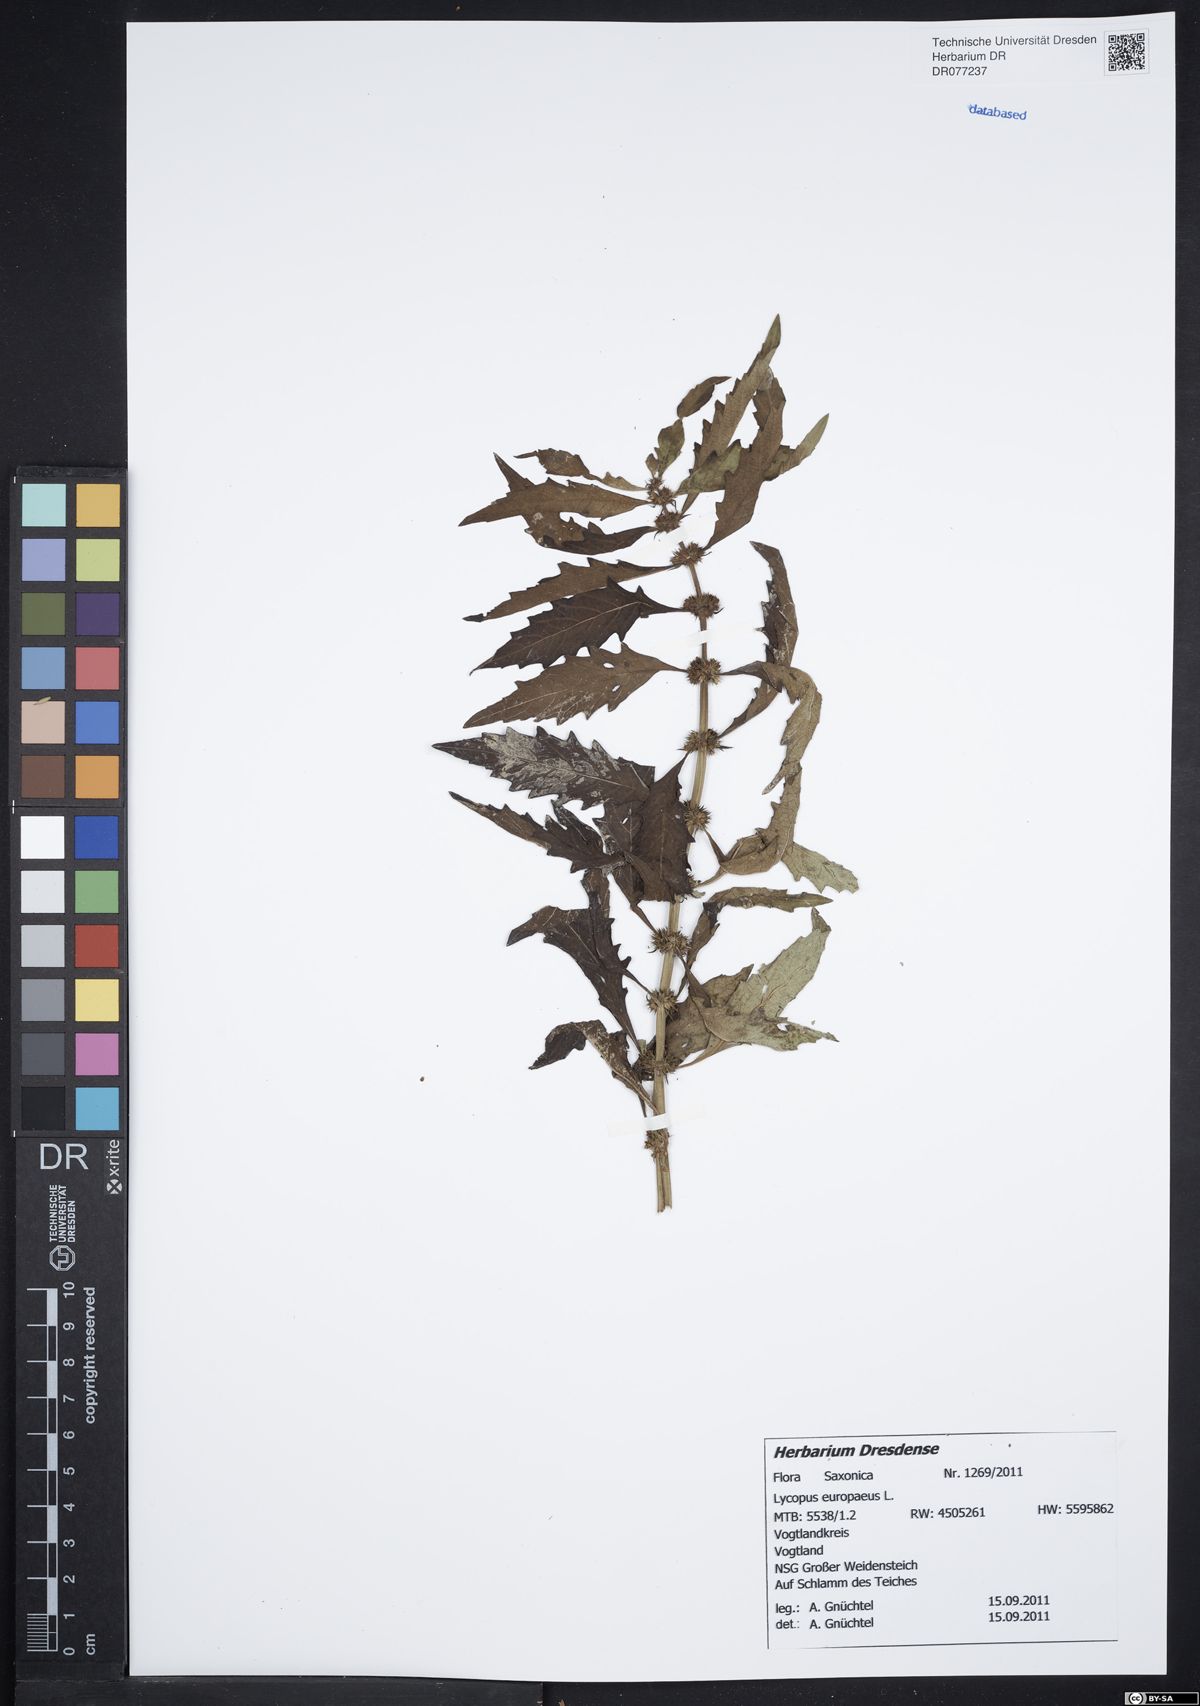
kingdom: Plantae
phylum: Tracheophyta
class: Magnoliopsida
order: Lamiales
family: Lamiaceae
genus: Lycopus
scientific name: Lycopus europaeus
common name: European bugleweed
